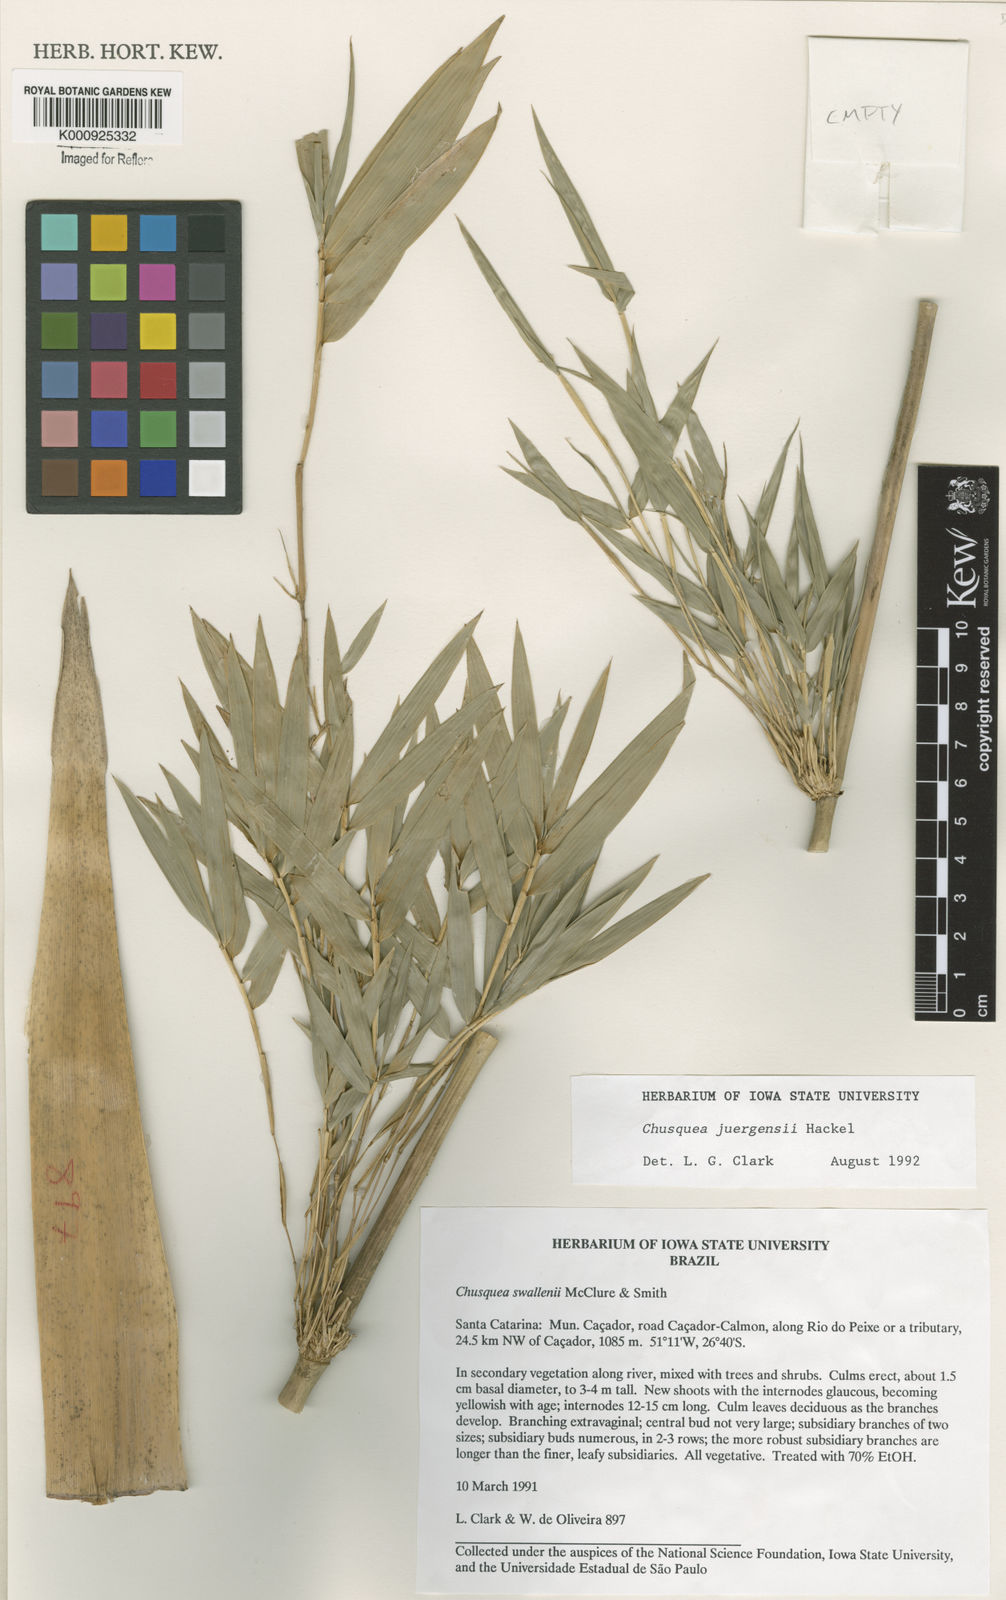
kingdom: Plantae
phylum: Tracheophyta
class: Liliopsida
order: Poales
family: Poaceae
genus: Chusquea
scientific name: Chusquea juergensii
